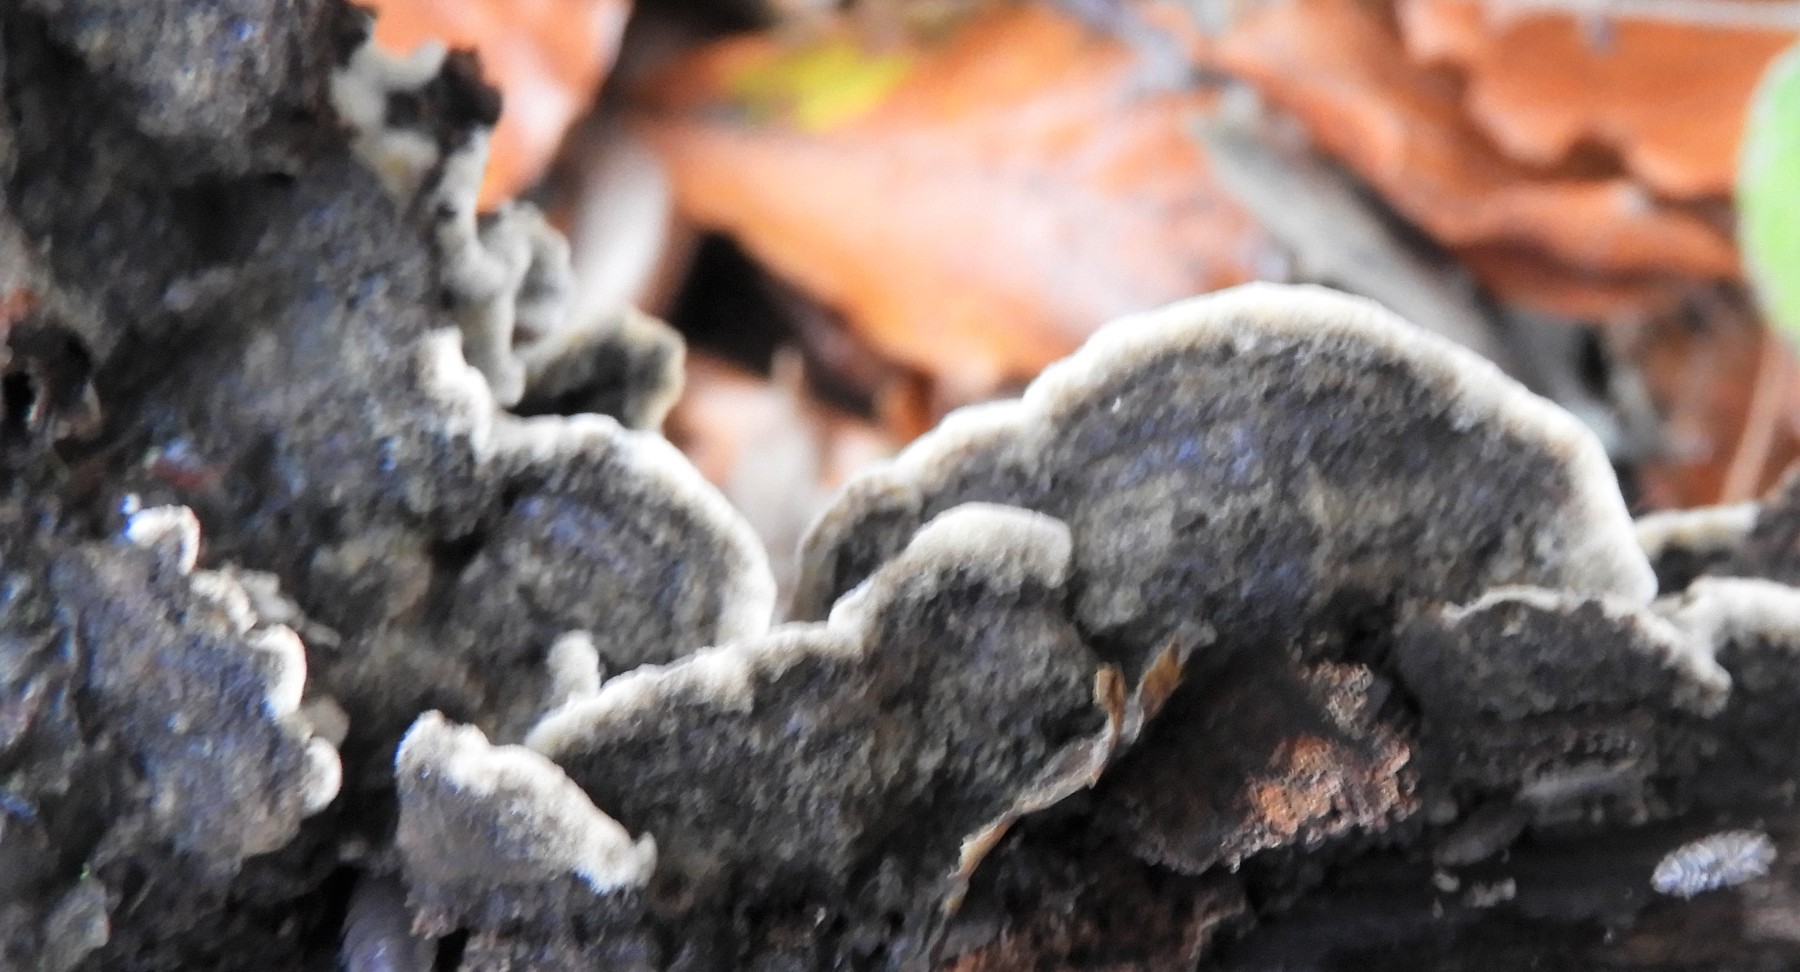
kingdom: Fungi
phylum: Basidiomycota
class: Agaricomycetes
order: Polyporales
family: Phanerochaetaceae
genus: Porostereum
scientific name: Porostereum spadiceum
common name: daddellædersvamp
